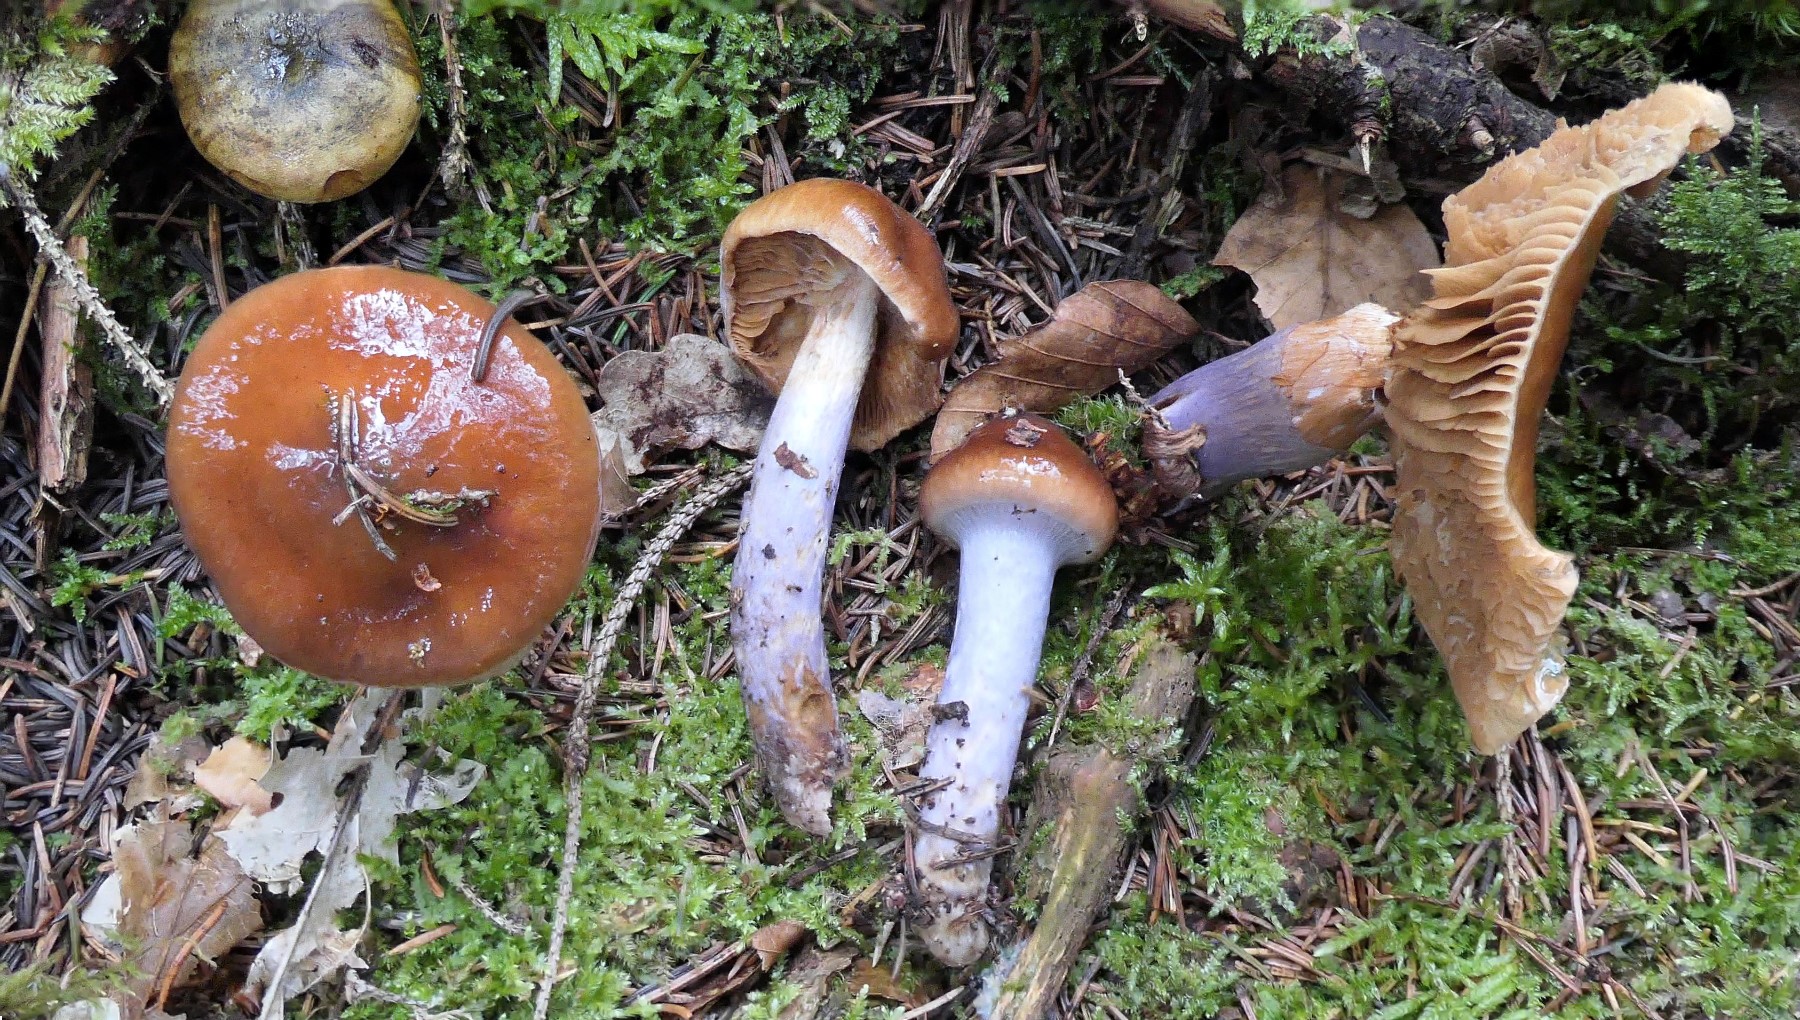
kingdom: Fungi
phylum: Basidiomycota
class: Agaricomycetes
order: Agaricales
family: Cortinariaceae
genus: Cortinarius
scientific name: Cortinarius collinitus
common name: spættet slørhat
